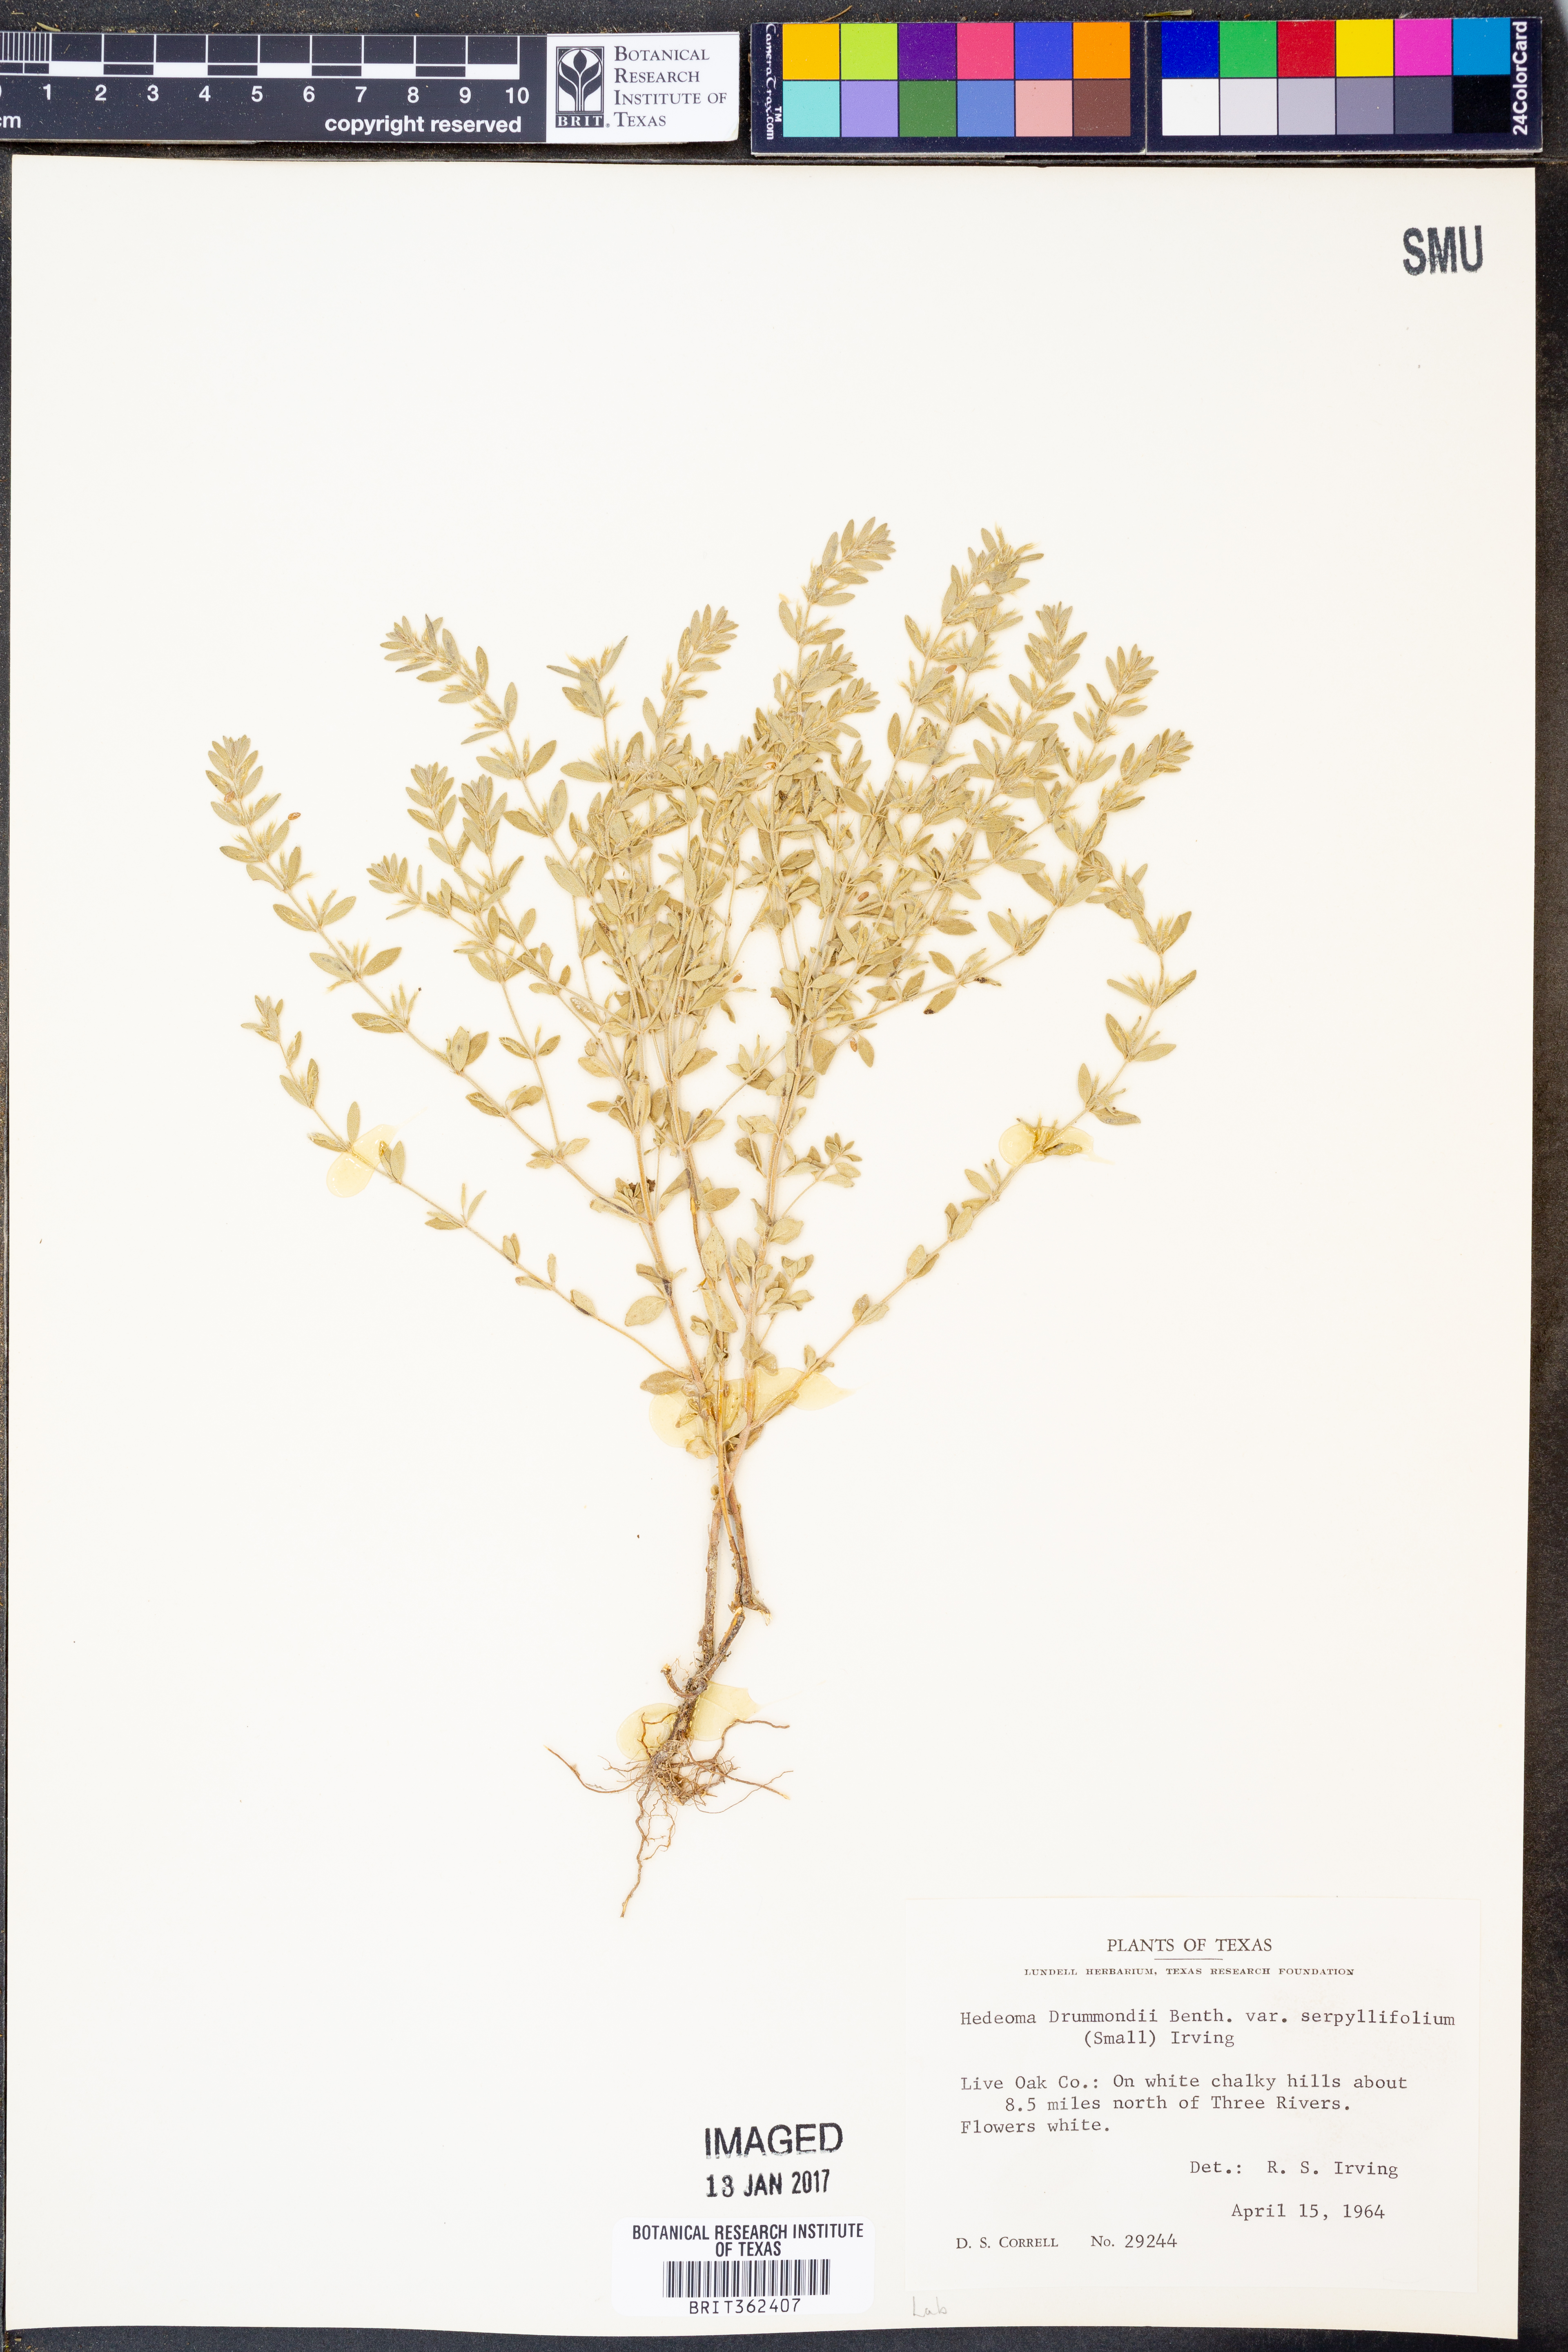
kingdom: Plantae
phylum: Tracheophyta
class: Magnoliopsida
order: Lamiales
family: Lamiaceae
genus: Hedeoma
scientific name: Hedeoma drummondii
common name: New mexico pennyroyal
